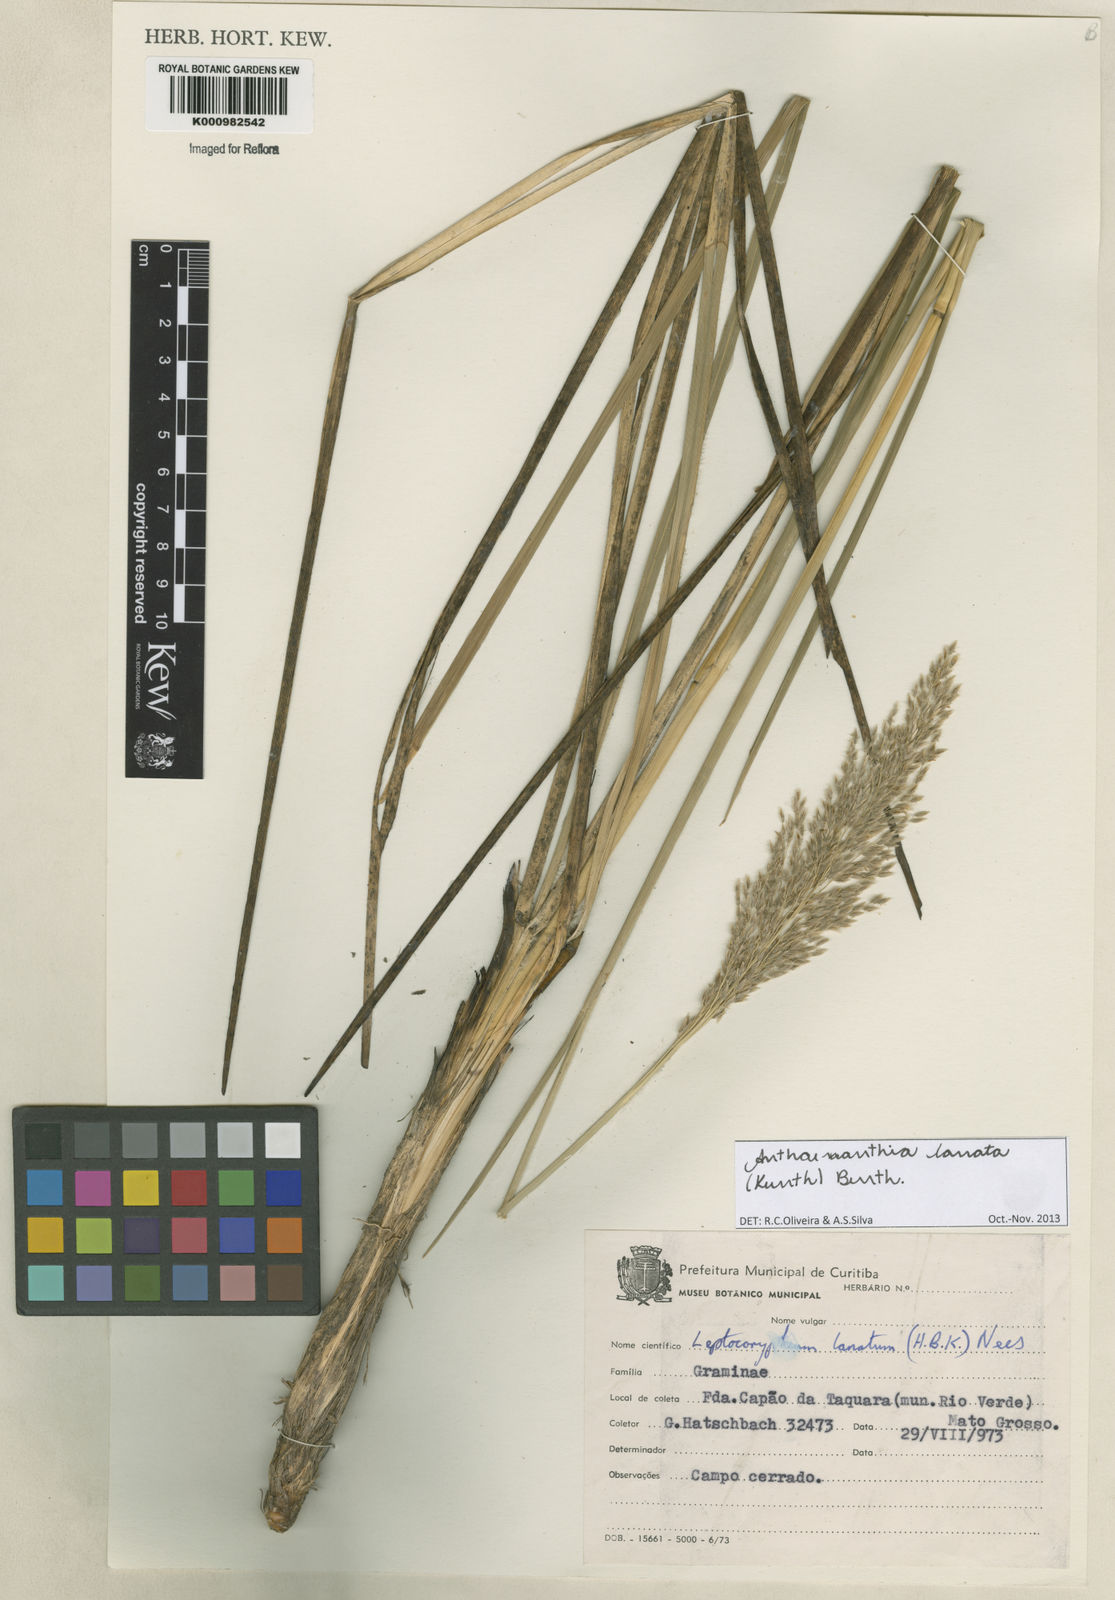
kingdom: Plantae
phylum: Tracheophyta
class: Liliopsida
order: Poales
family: Poaceae
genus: Anthenantia
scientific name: Anthenantia lanata
